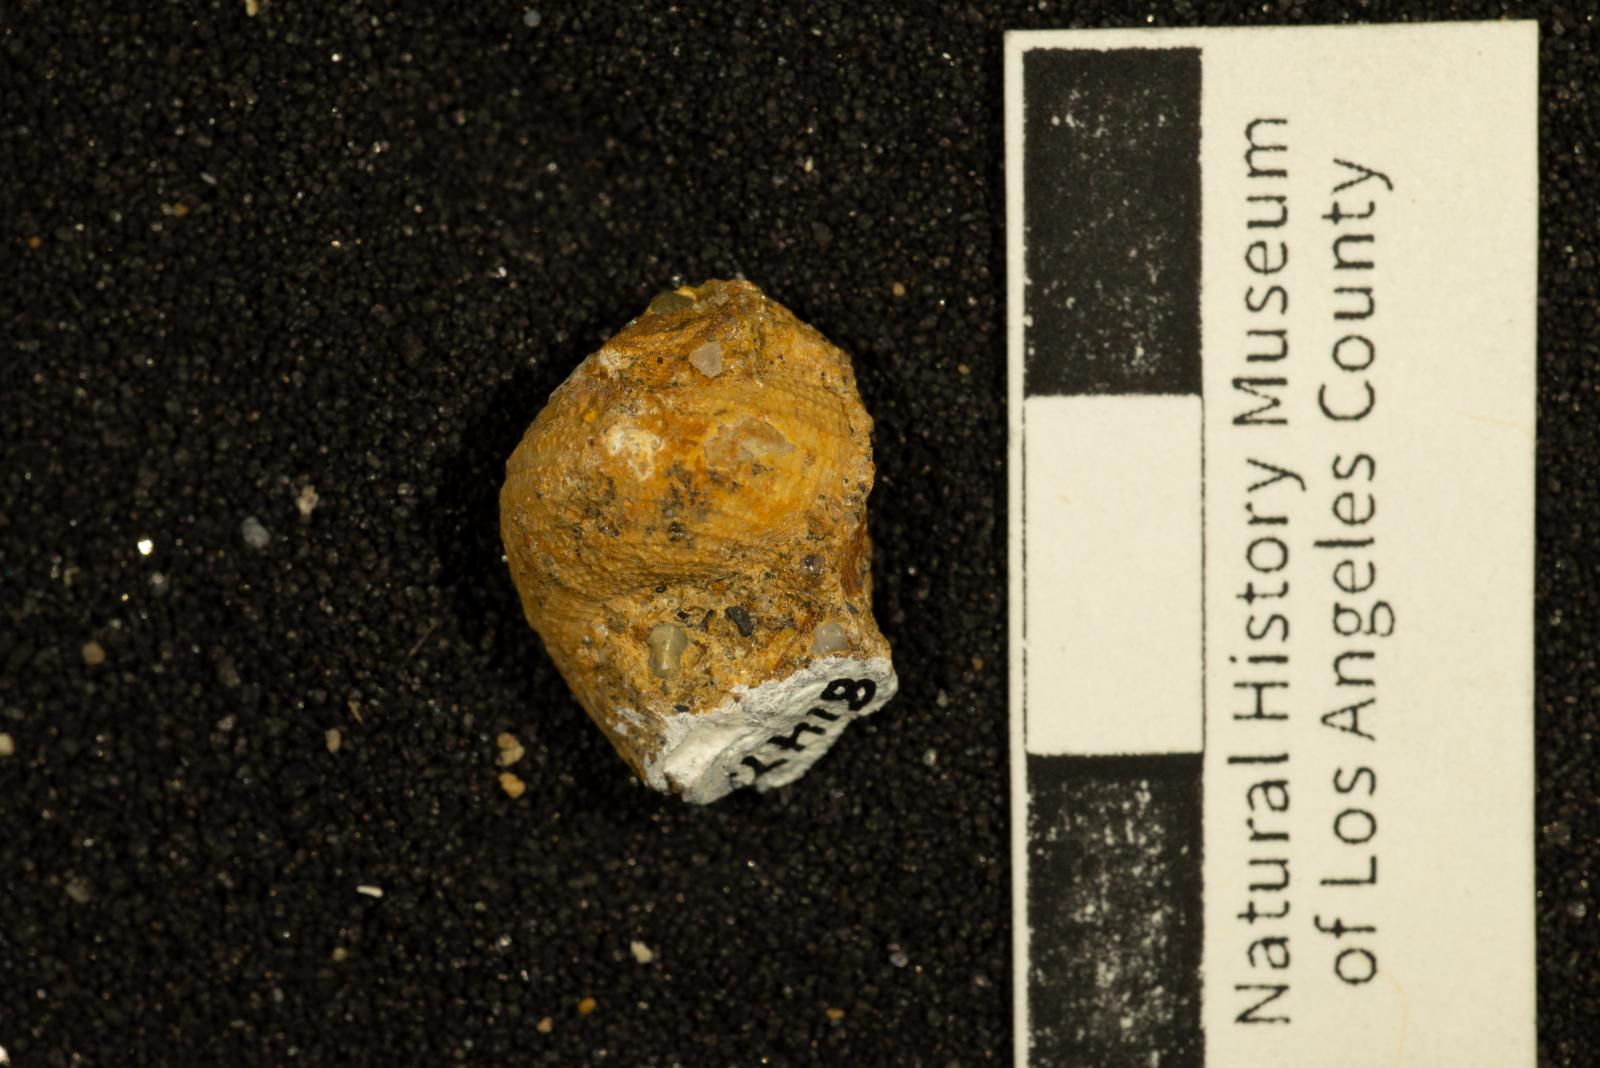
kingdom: Animalia
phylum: Mollusca
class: Gastropoda
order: Seguenziida
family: Calliotropidae
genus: Cidarina
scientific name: Cidarina beta
